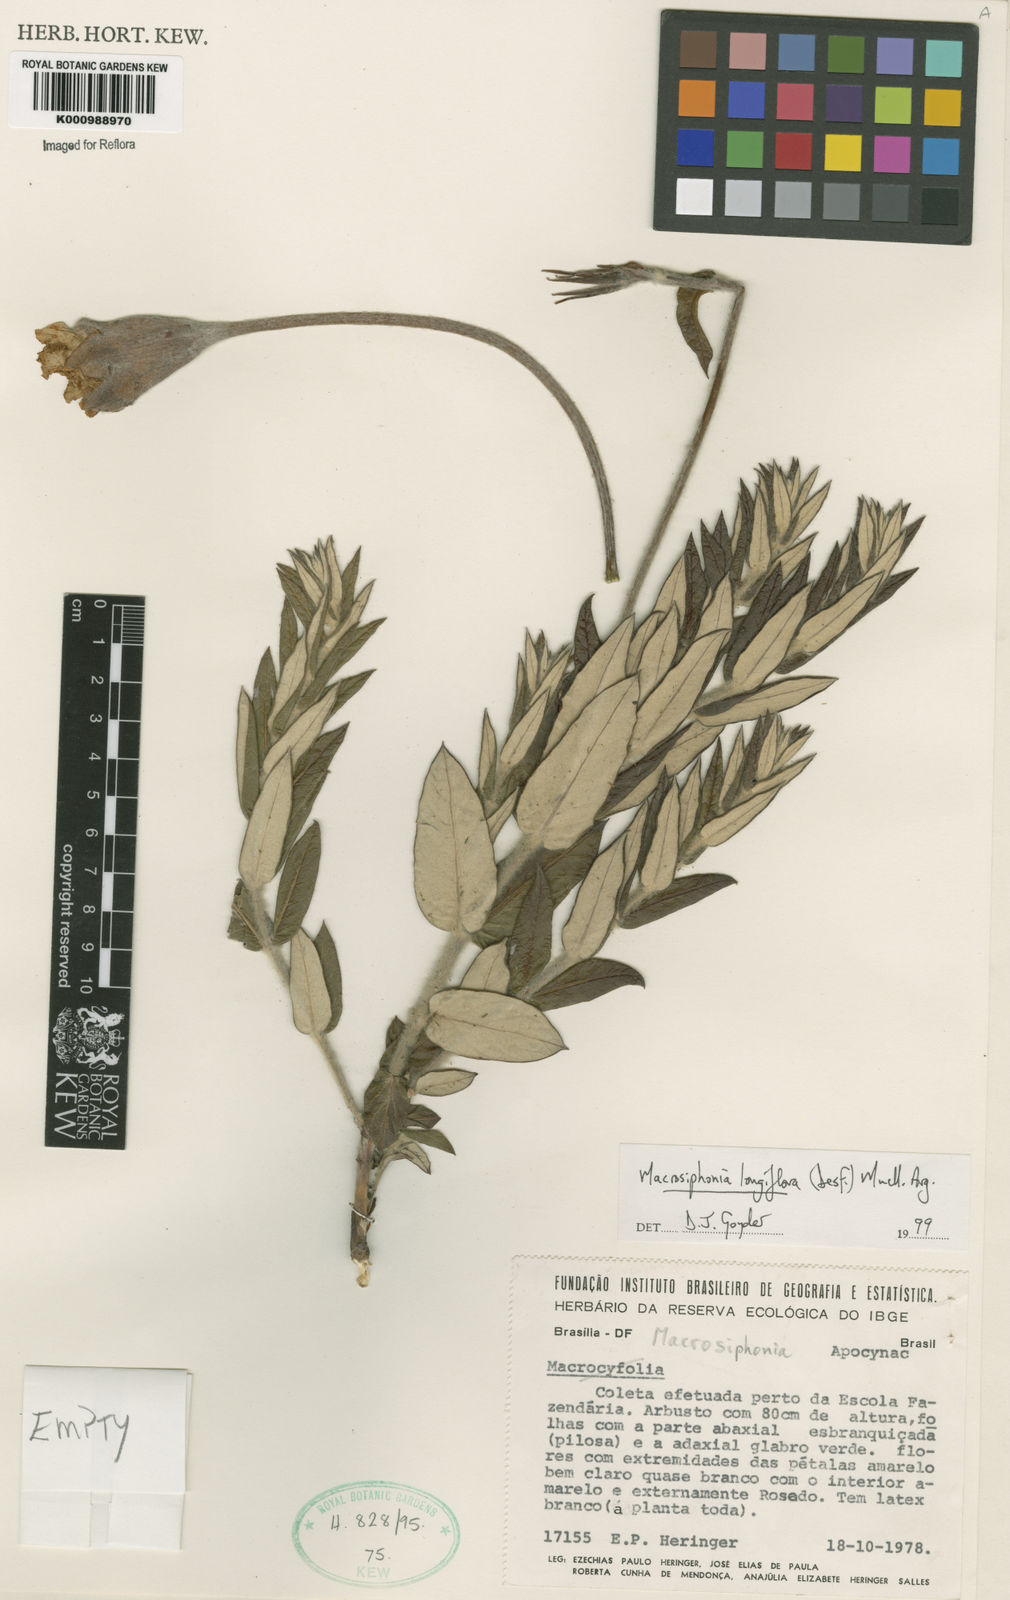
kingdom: Plantae
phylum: Tracheophyta
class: Magnoliopsida
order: Gentianales
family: Apocynaceae
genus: Mandevilla
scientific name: Mandevilla longiflora
